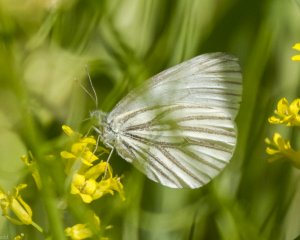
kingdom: Animalia
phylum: Arthropoda
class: Insecta
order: Lepidoptera
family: Pieridae
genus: Pieris
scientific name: Pieris oleracea
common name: Mustard White
